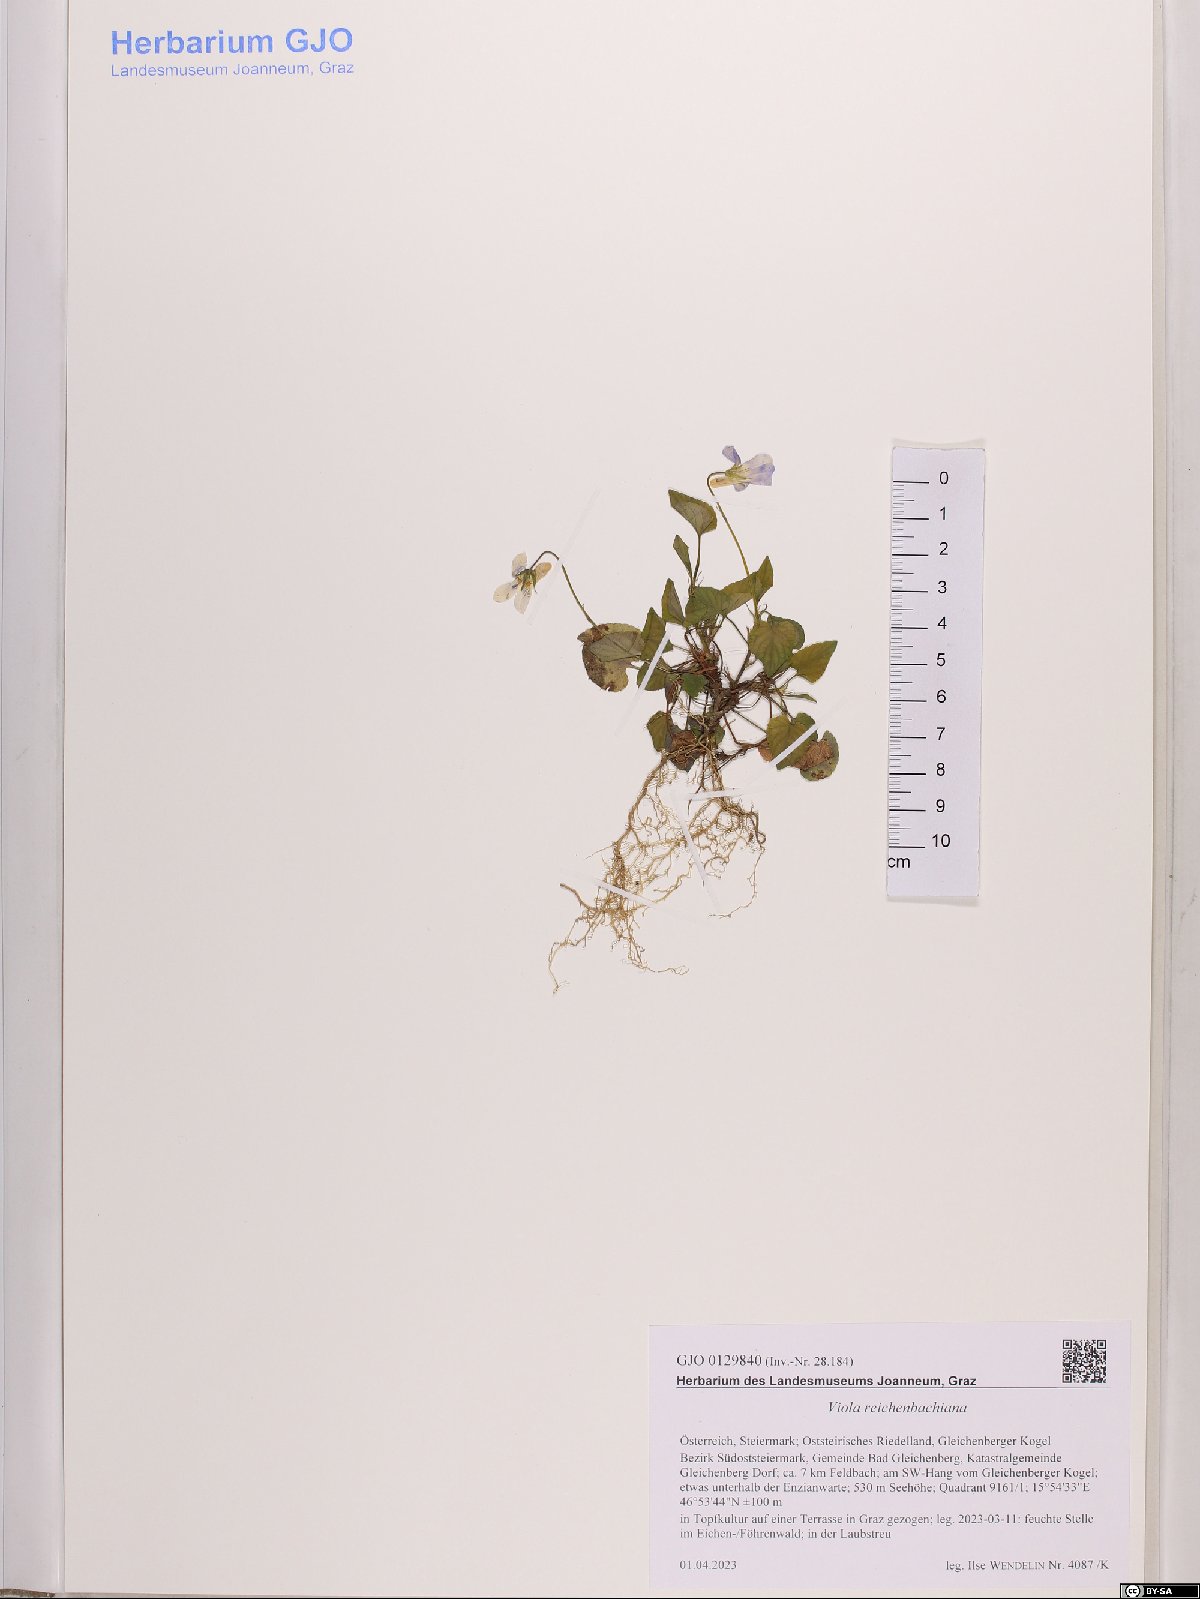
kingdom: Plantae
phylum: Tracheophyta
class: Magnoliopsida
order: Malpighiales
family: Violaceae
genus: Viola
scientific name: Viola reichenbachiana
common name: Early dog-violet
